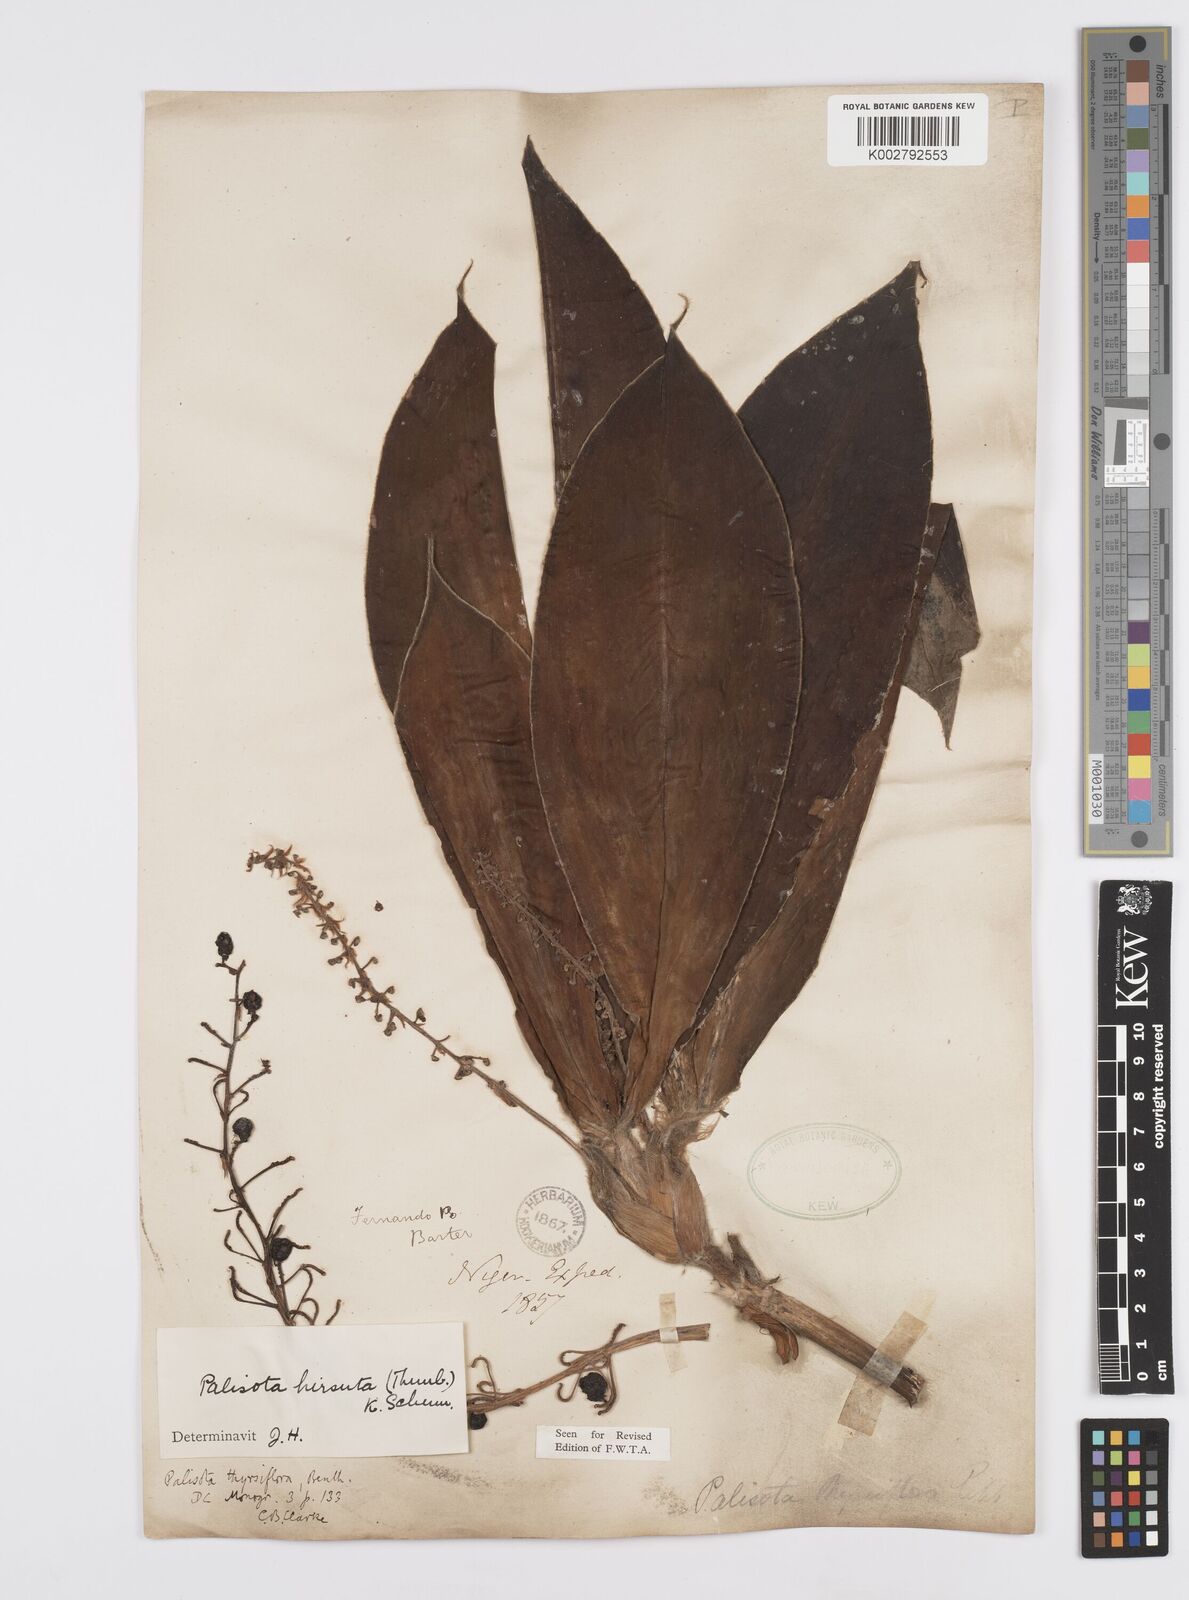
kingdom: Plantae
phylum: Tracheophyta
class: Liliopsida
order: Commelinales
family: Commelinaceae
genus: Palisota
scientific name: Palisota hirsuta
